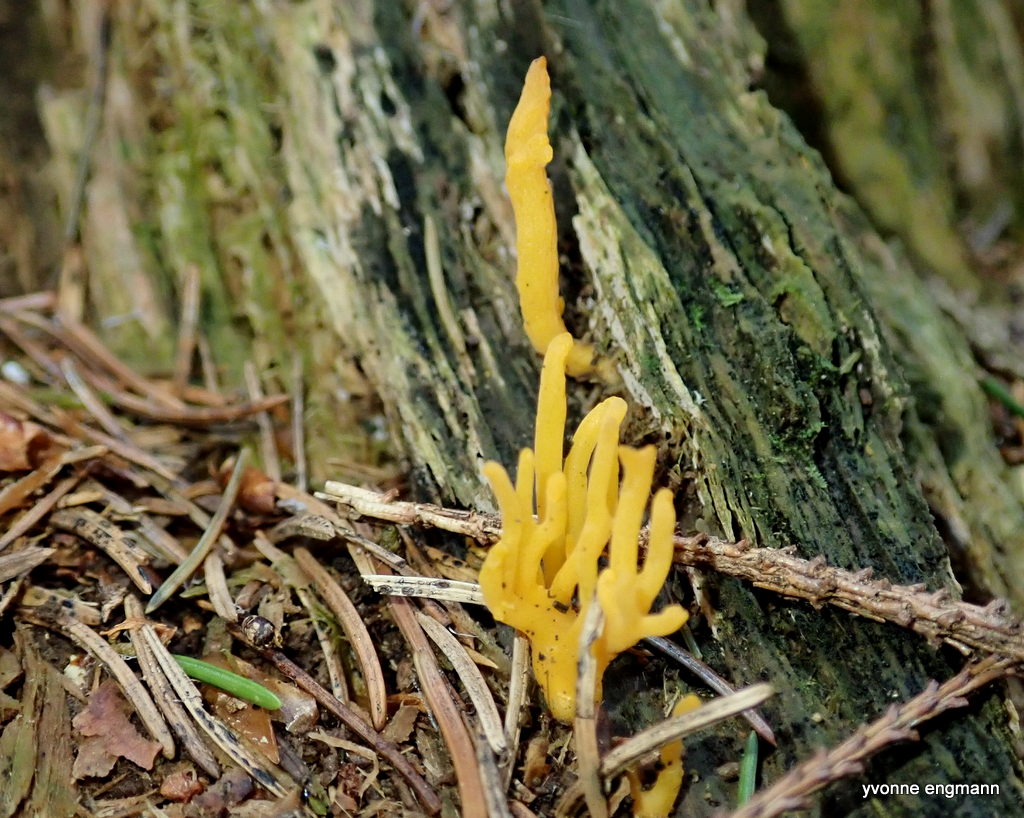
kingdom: Fungi
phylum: Basidiomycota
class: Dacrymycetes
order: Dacrymycetales
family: Dacrymycetaceae
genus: Calocera
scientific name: Calocera viscosa
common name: almindelig guldgaffel
